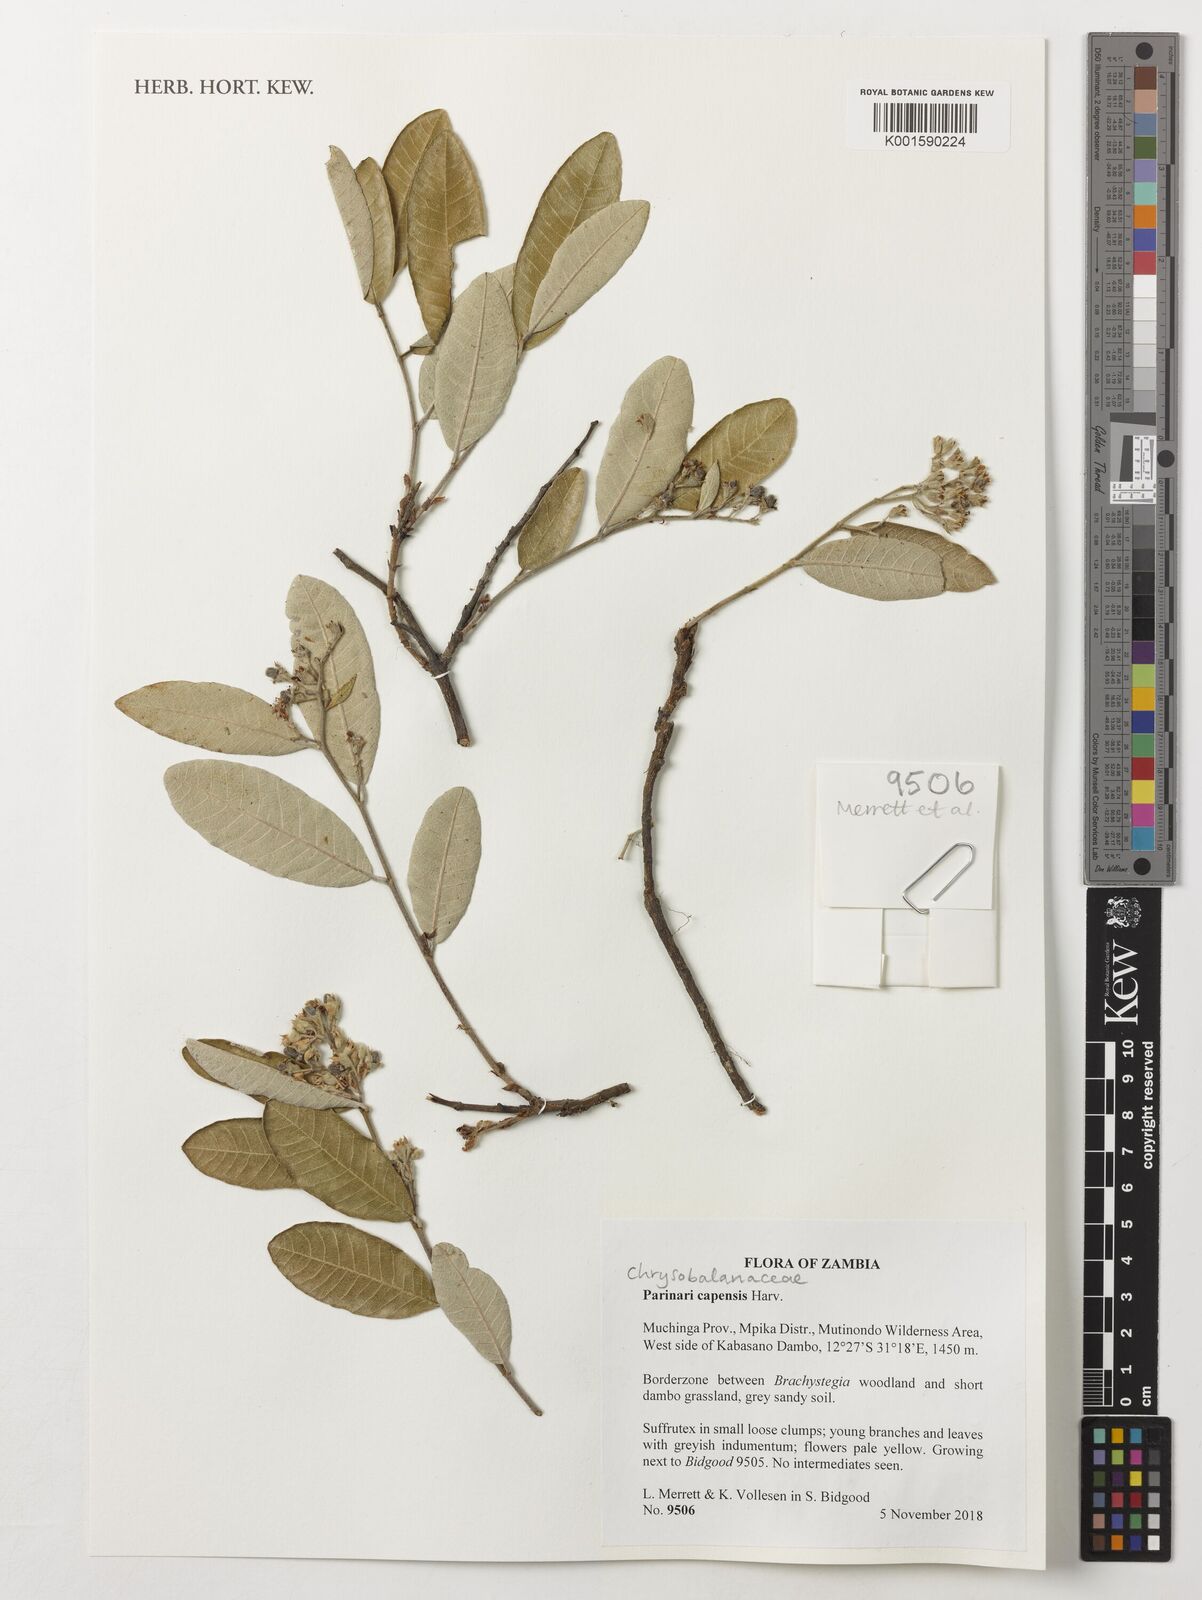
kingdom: Plantae
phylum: Tracheophyta
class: Magnoliopsida
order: Malpighiales
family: Chrysobalanaceae
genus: Parinari
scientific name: Parinari capensis
